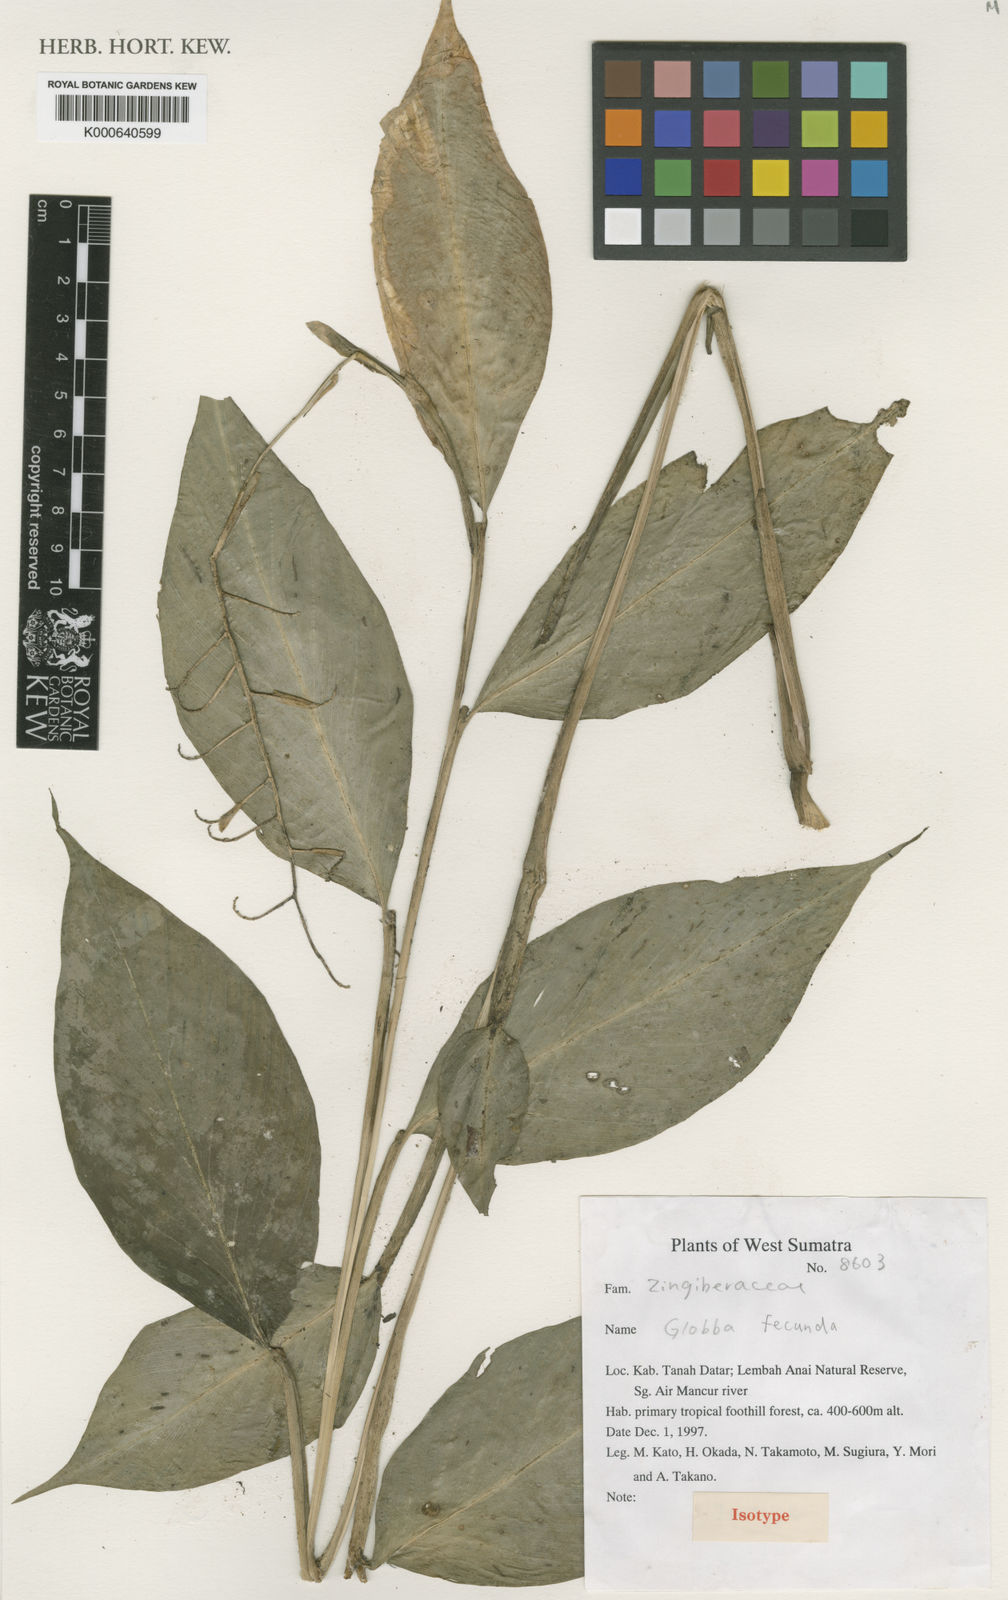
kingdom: Plantae
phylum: Tracheophyta
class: Liliopsida
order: Zingiberales
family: Zingiberaceae
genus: Globba
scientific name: Globba fecunda
